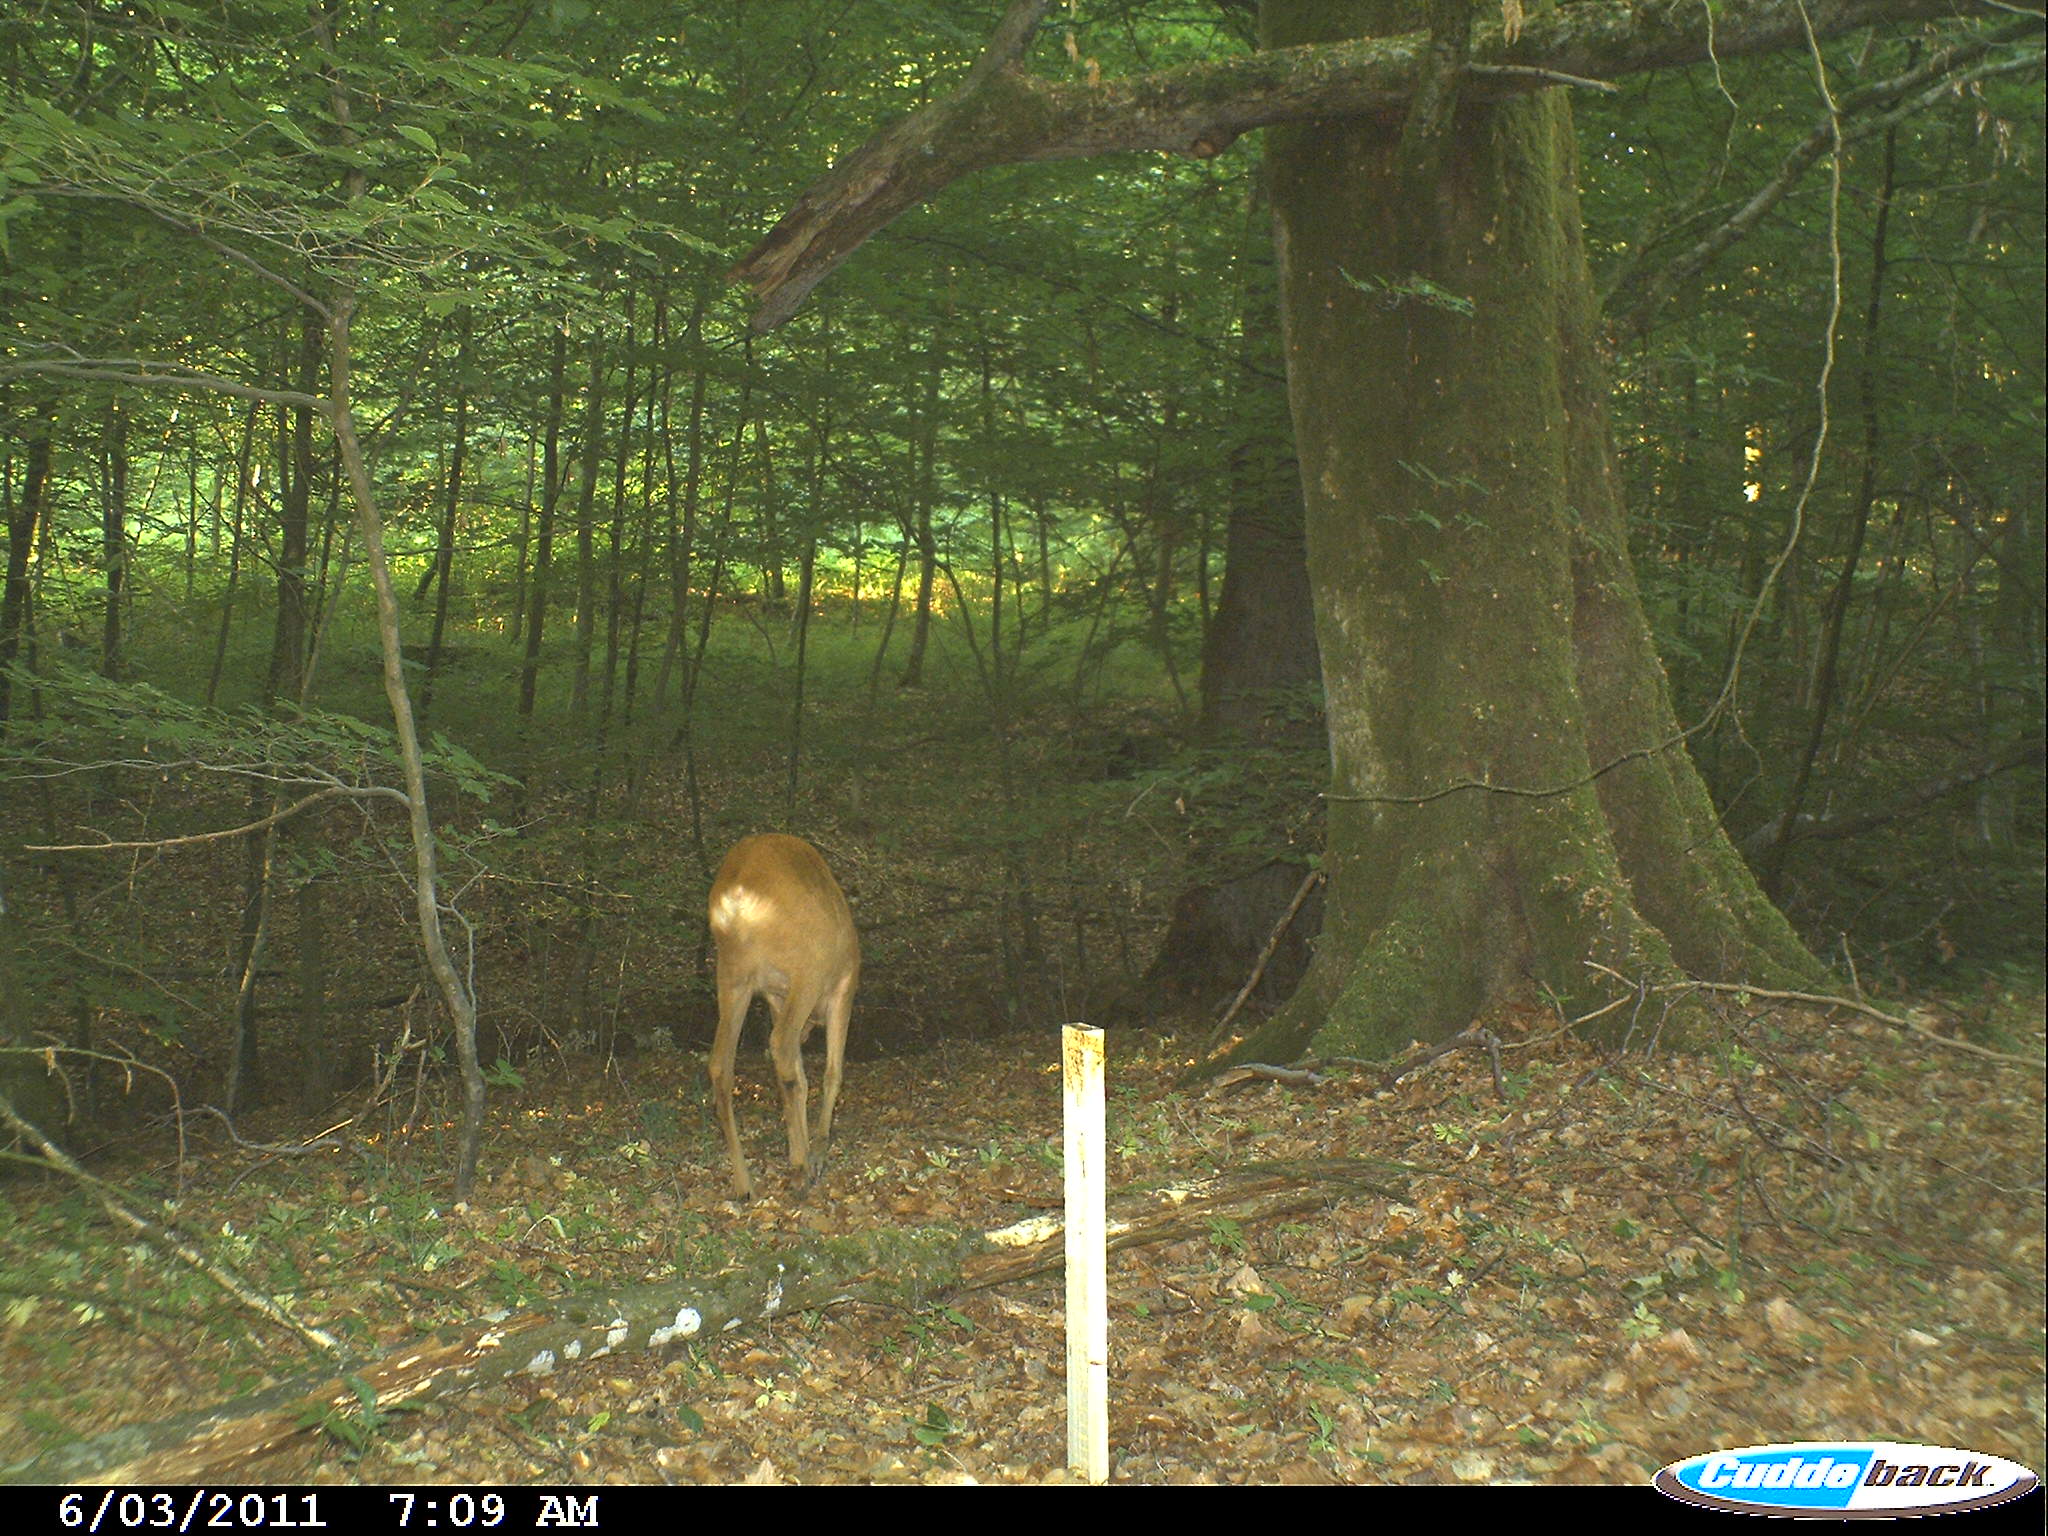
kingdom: Animalia
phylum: Chordata
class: Mammalia
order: Artiodactyla
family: Cervidae
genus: Capreolus
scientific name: Capreolus capreolus
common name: Western roe deer
